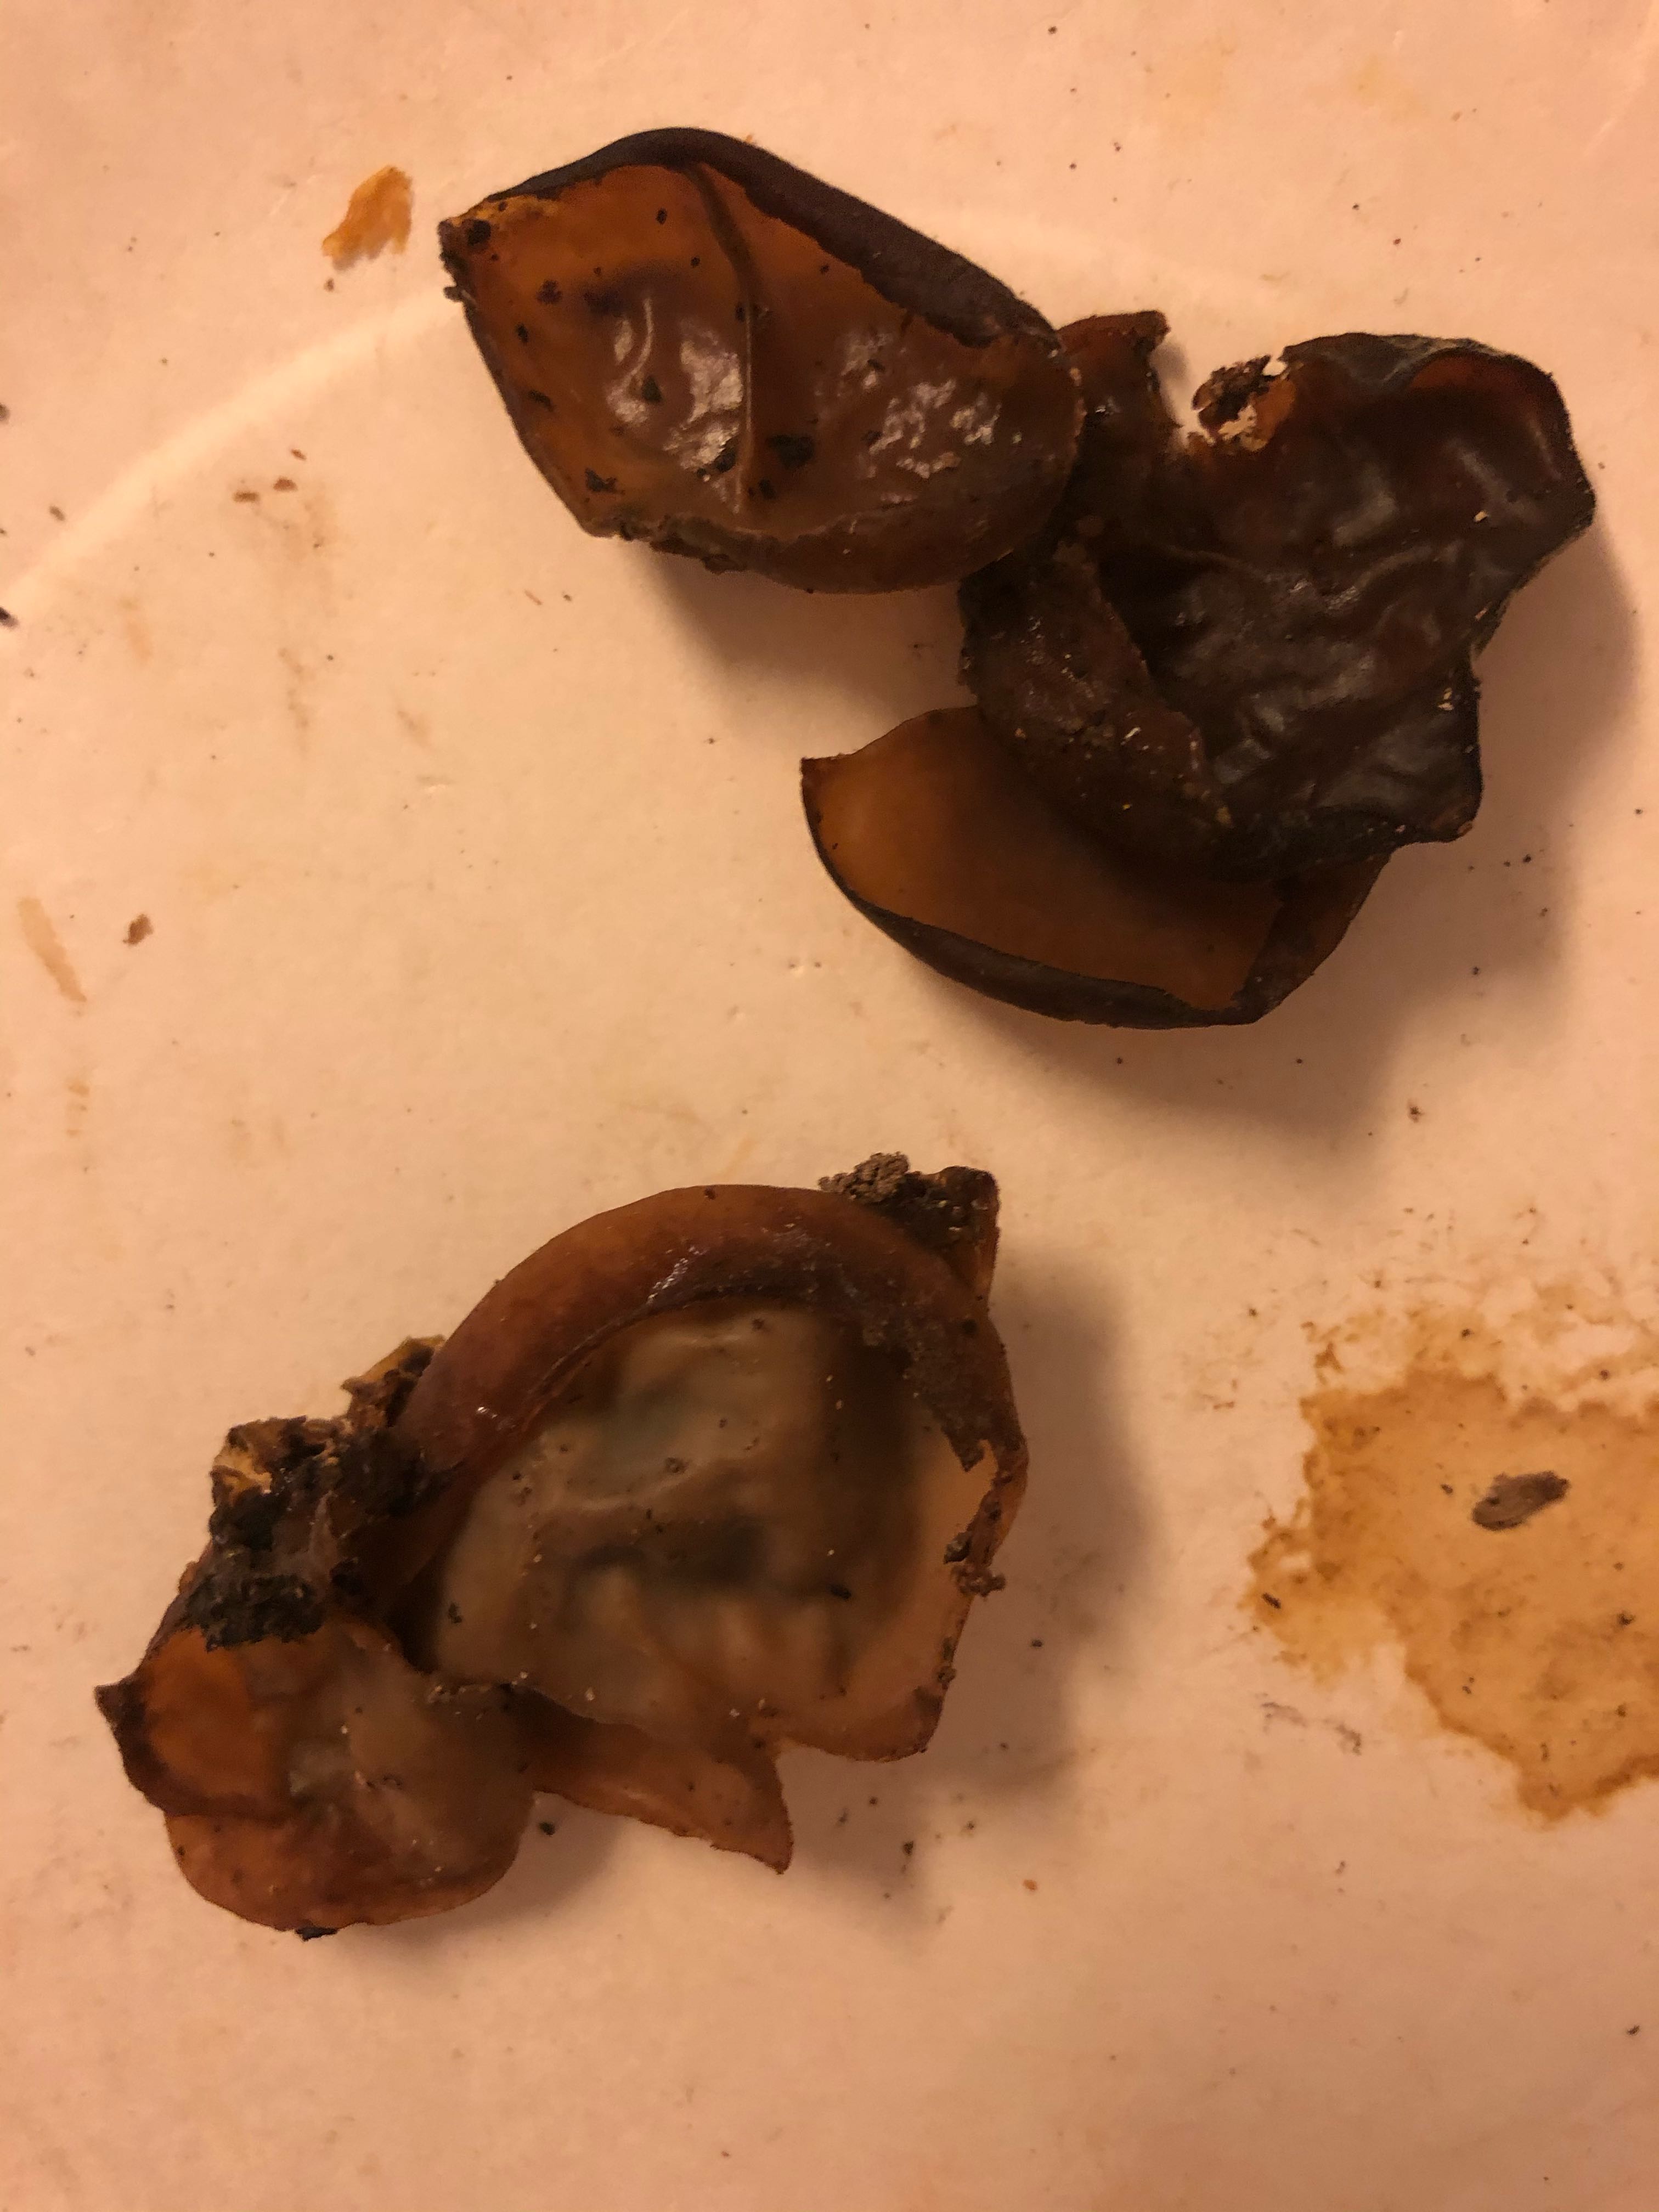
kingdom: Fungi
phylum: Basidiomycota
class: Agaricomycetes
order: Auriculariales
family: Auriculariaceae
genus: Auricularia
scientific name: Auricularia auricula-judae
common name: almindelig judasøre
